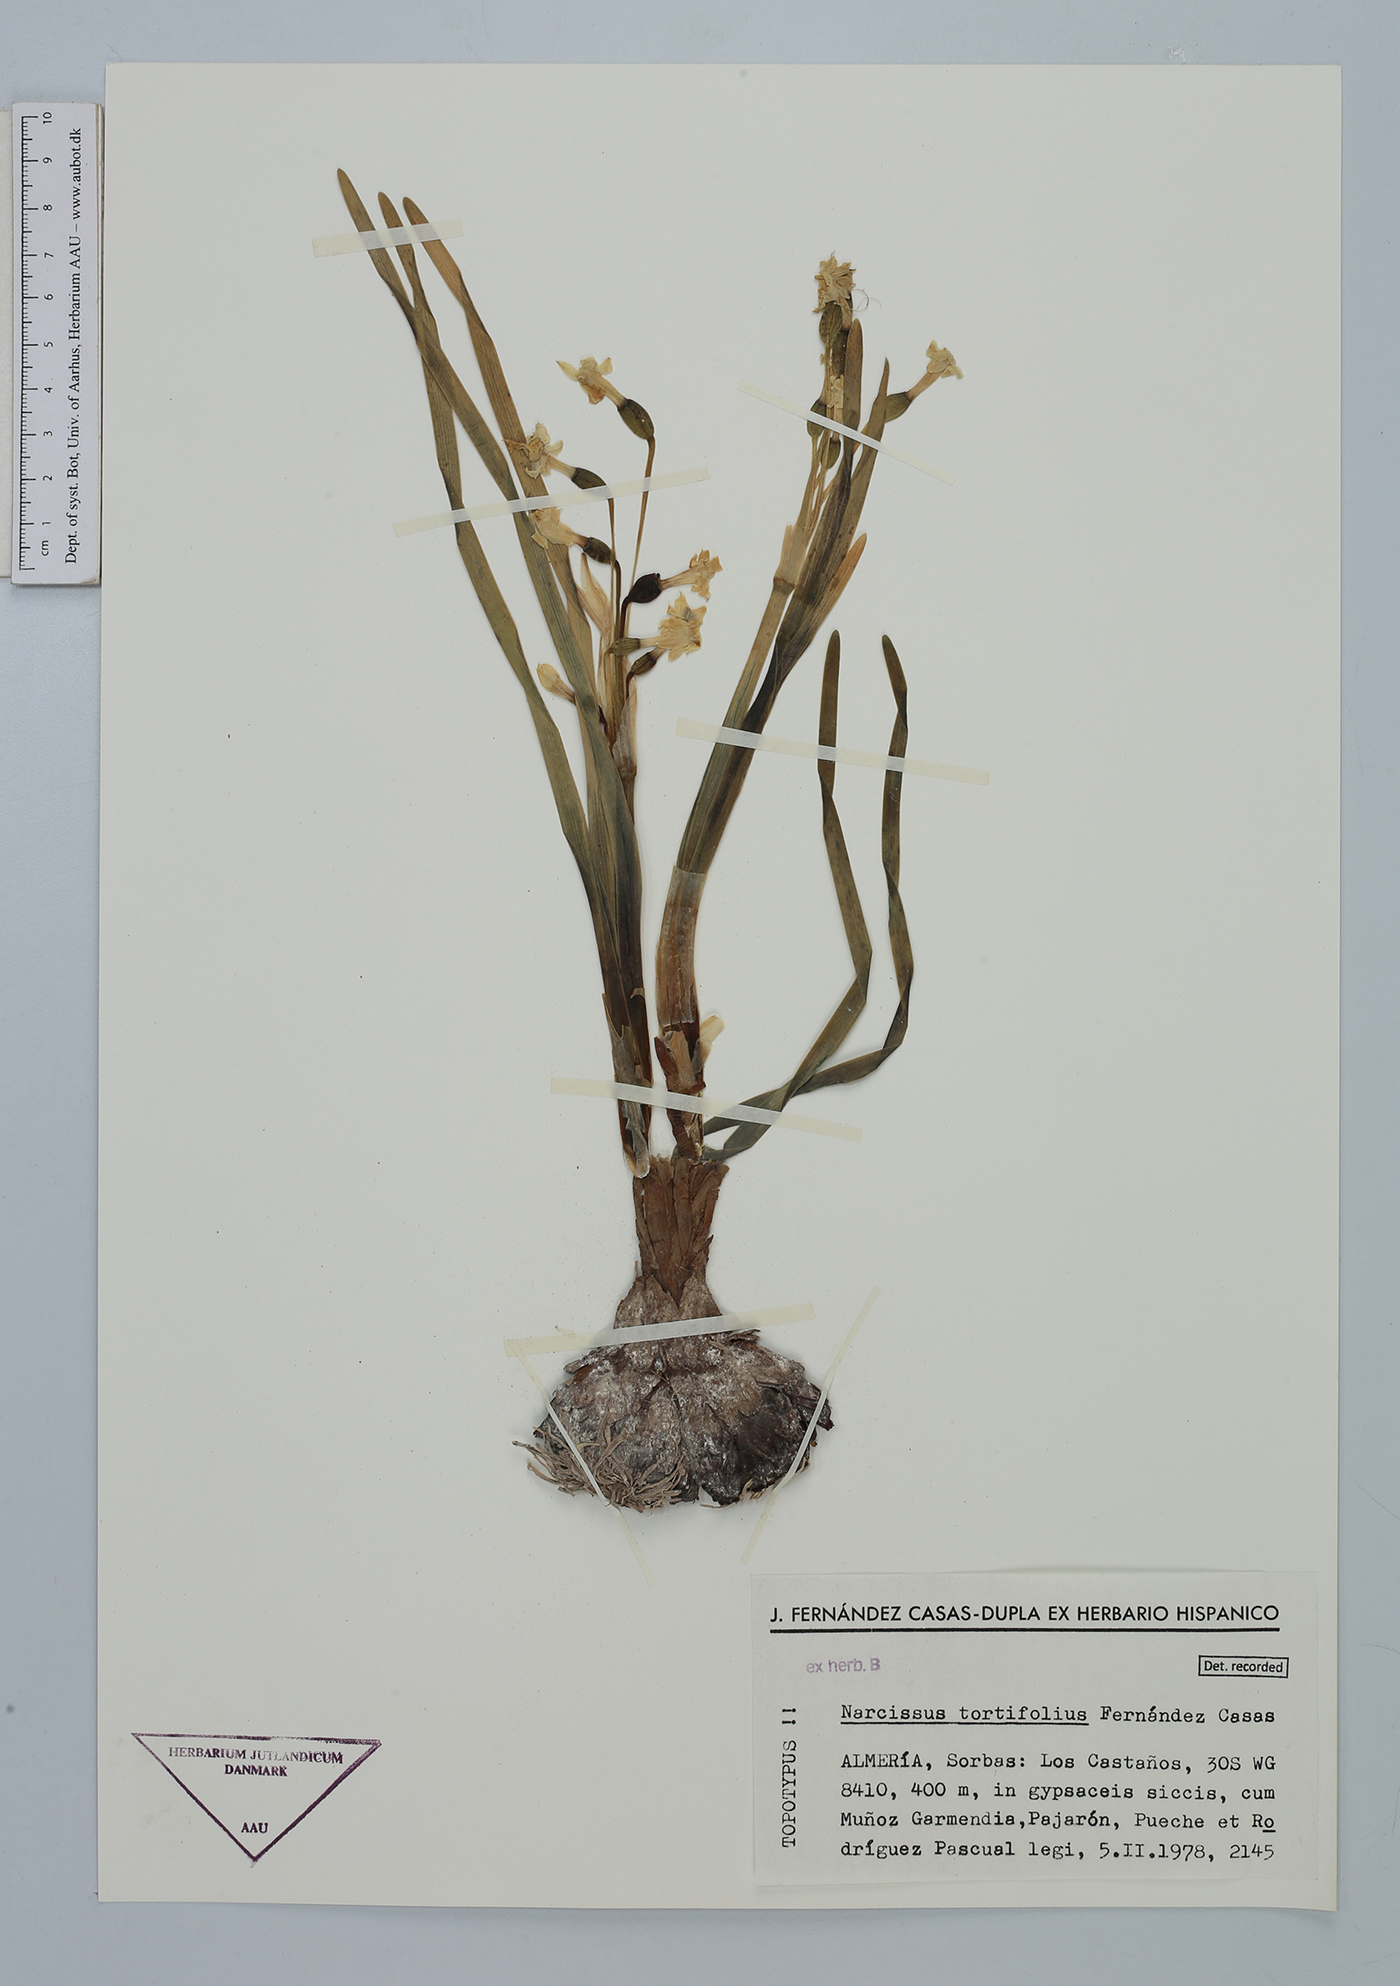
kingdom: Plantae
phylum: Tracheophyta
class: Liliopsida
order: Asparagales
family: Amaryllidaceae
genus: Narcissus
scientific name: Narcissus tortifolius
